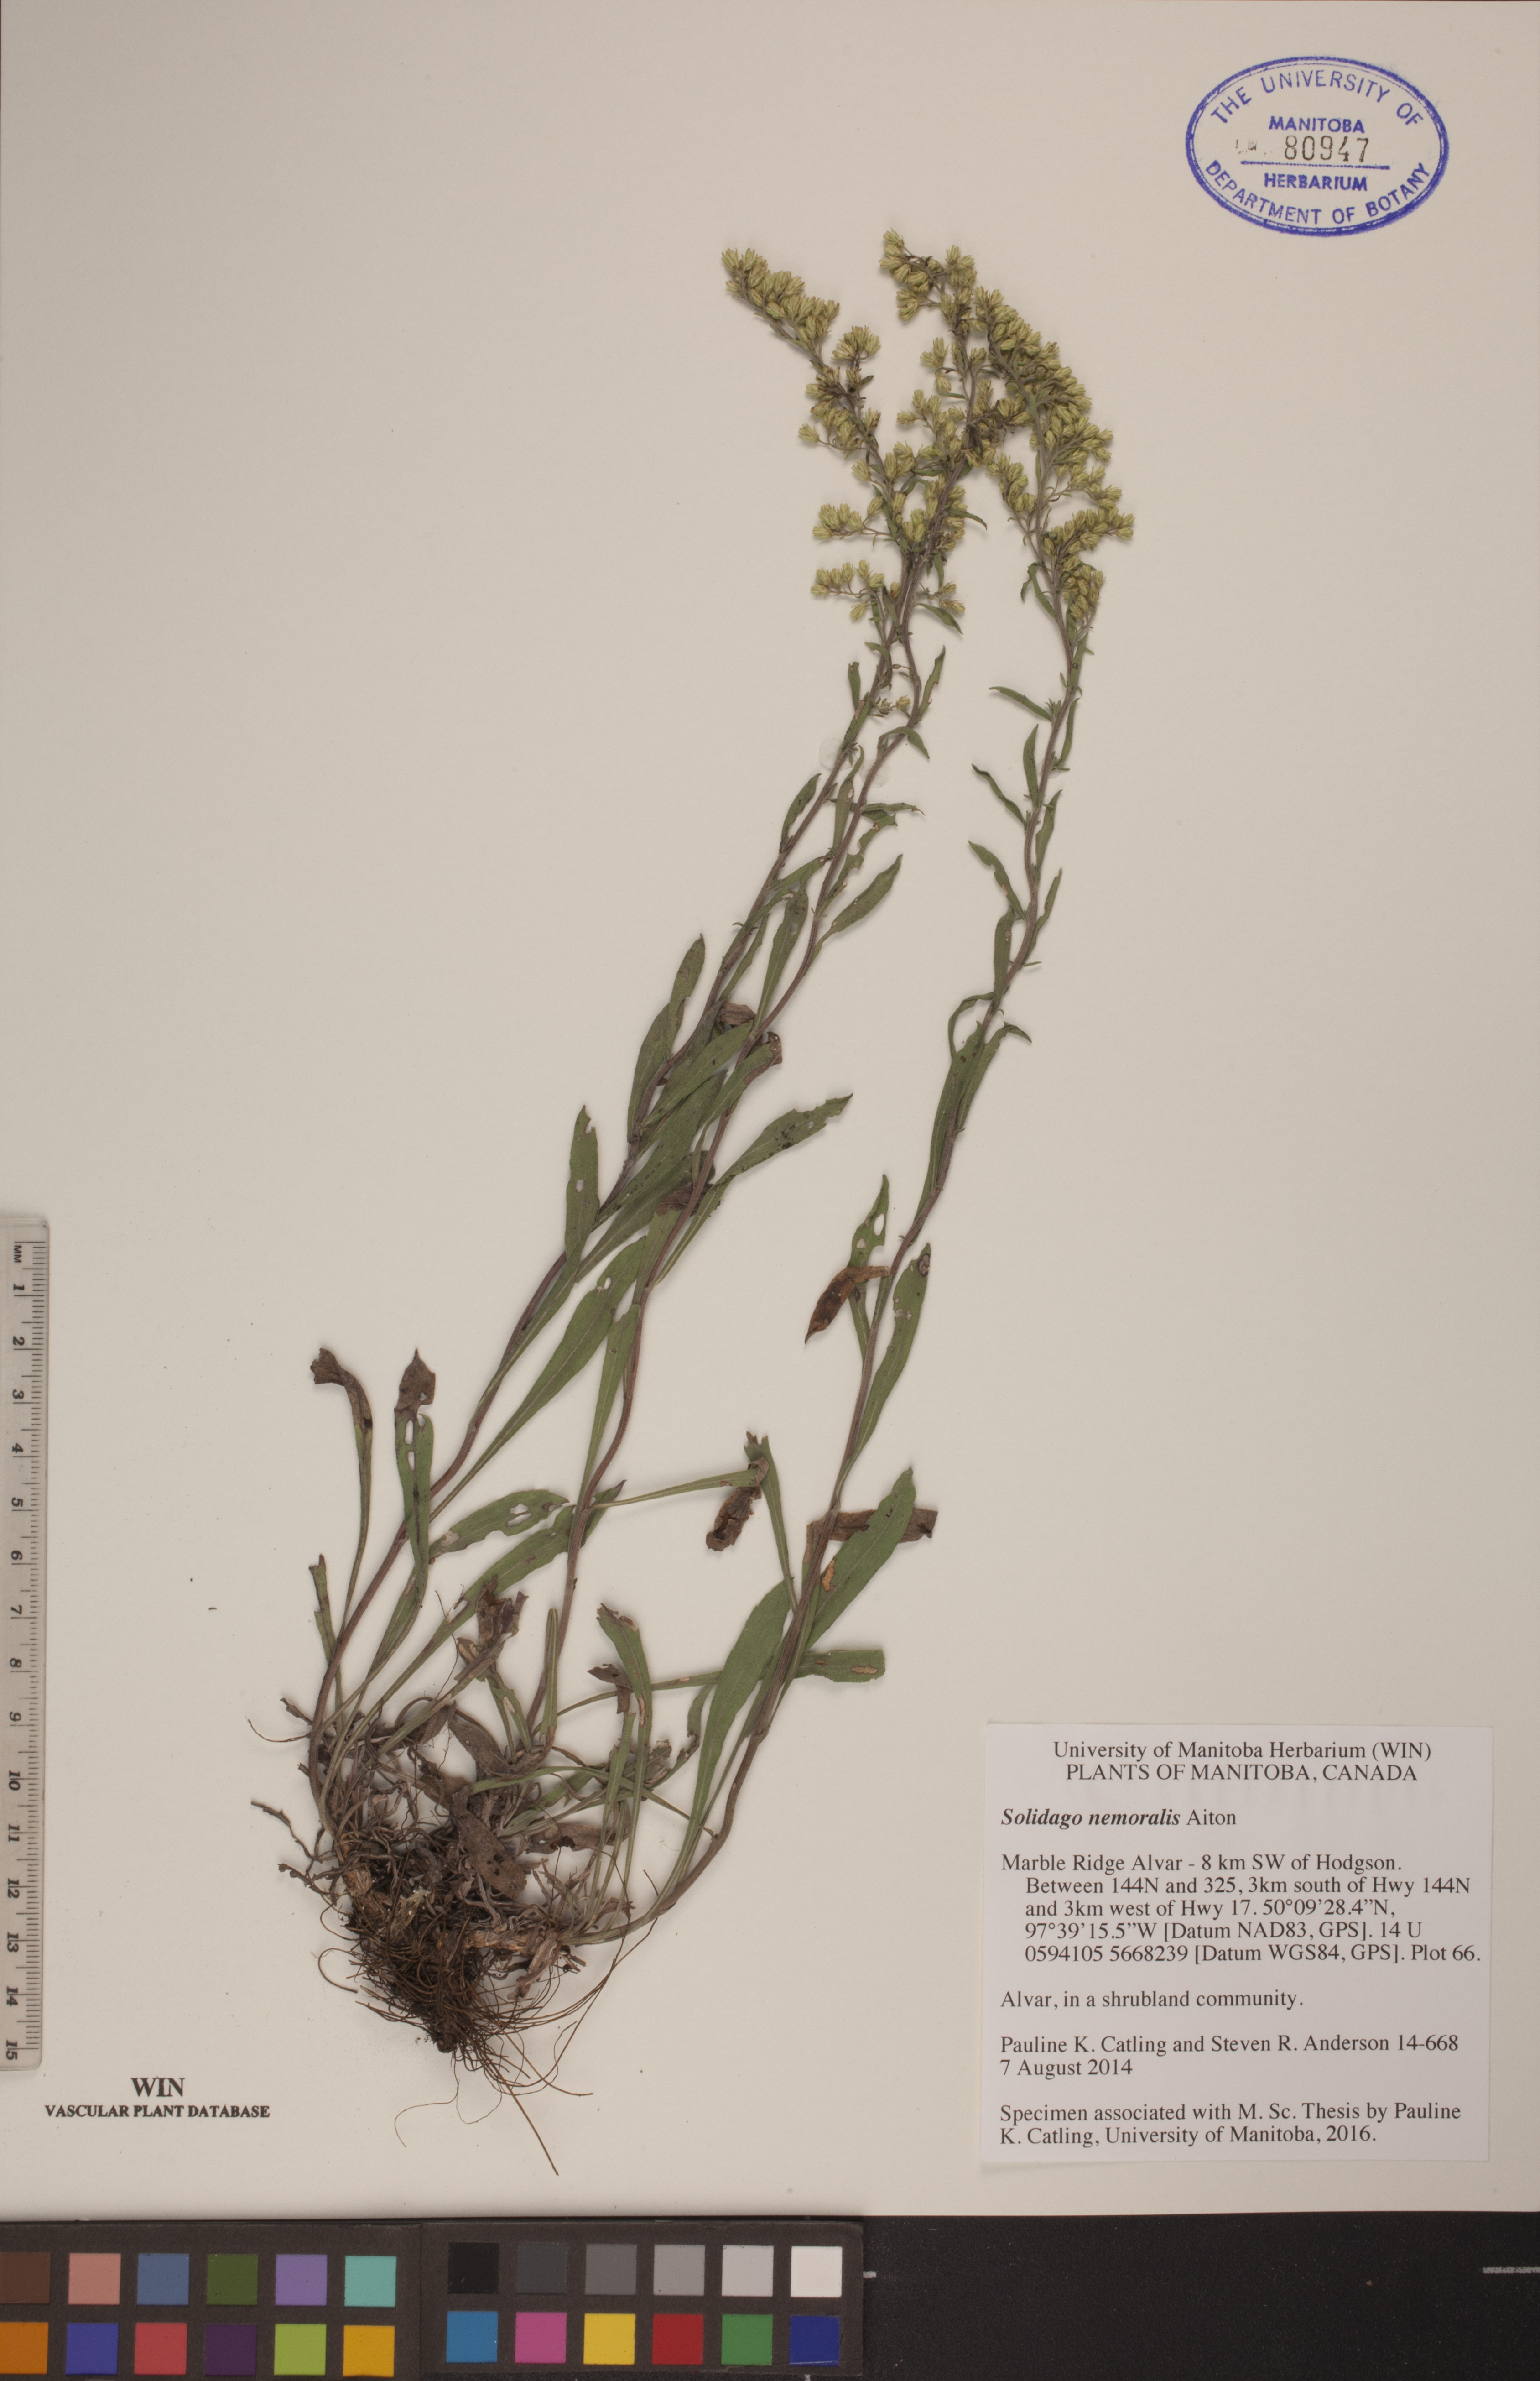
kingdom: Plantae
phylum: Tracheophyta
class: Magnoliopsida
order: Asterales
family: Asteraceae
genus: Solidago
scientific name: Solidago nemoralis
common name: Grey goldenrod
